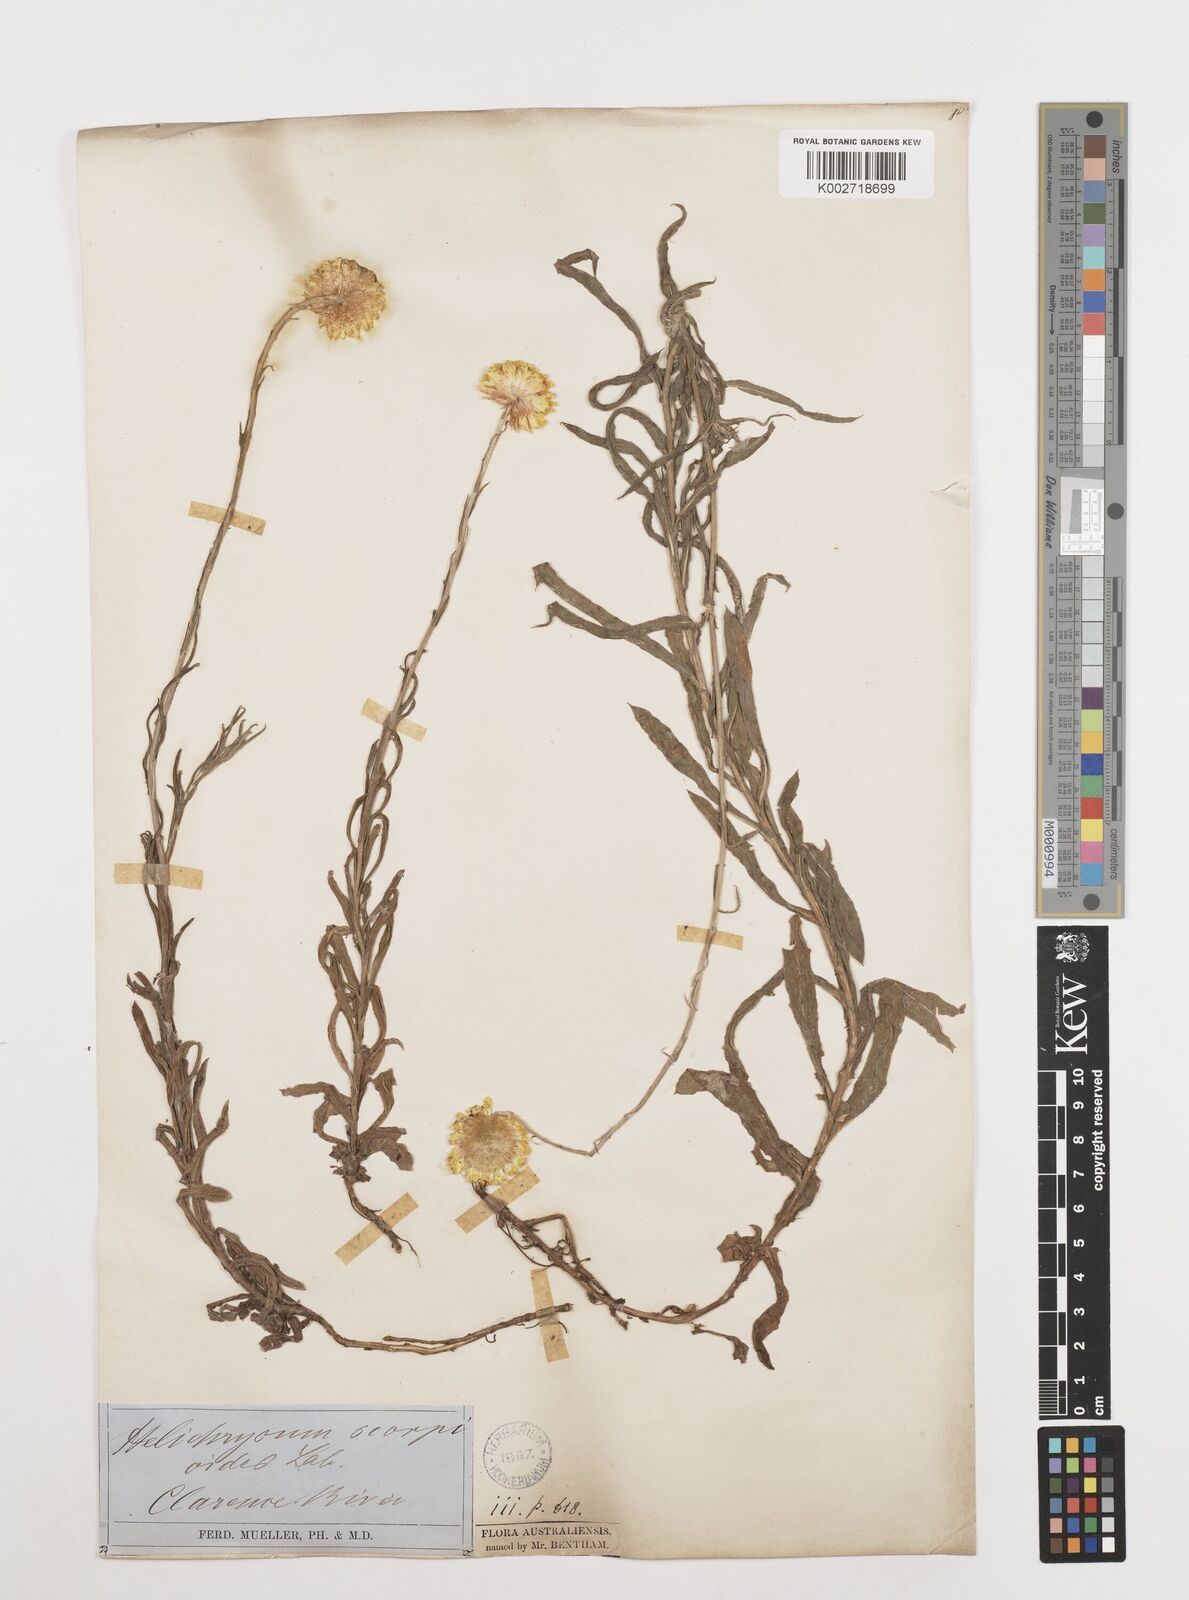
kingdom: Plantae
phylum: Tracheophyta
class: Magnoliopsida
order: Asterales
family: Asteraceae
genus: Coronidium
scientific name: Coronidium scorpioides
